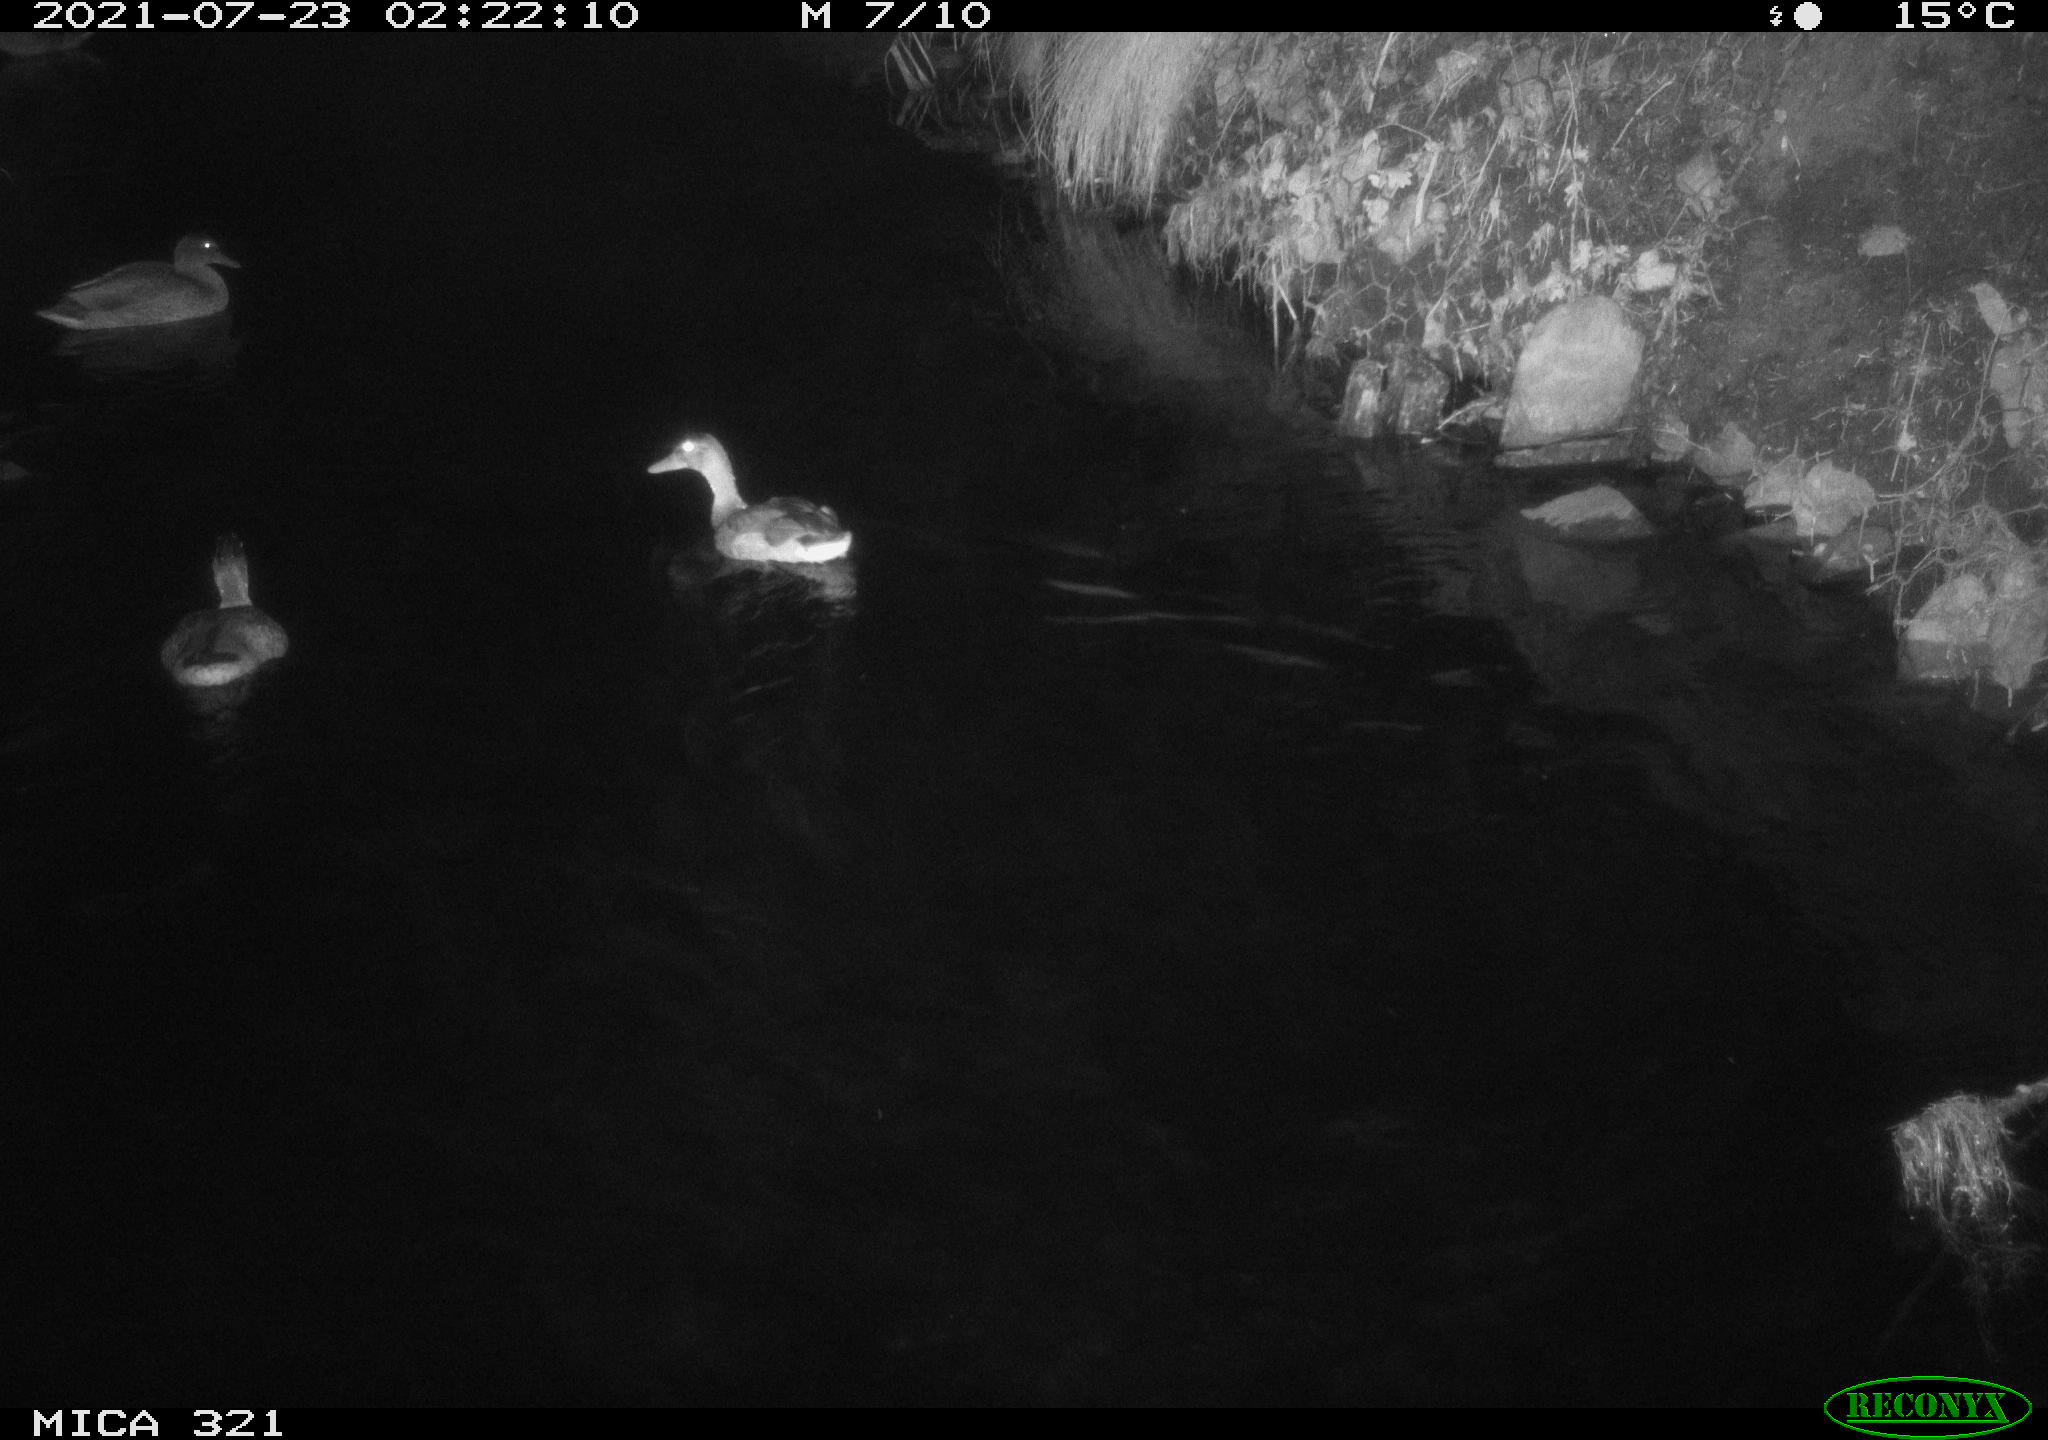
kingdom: Animalia
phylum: Chordata
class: Aves
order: Anseriformes
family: Anatidae
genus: Anas
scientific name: Anas platyrhynchos
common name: Mallard
